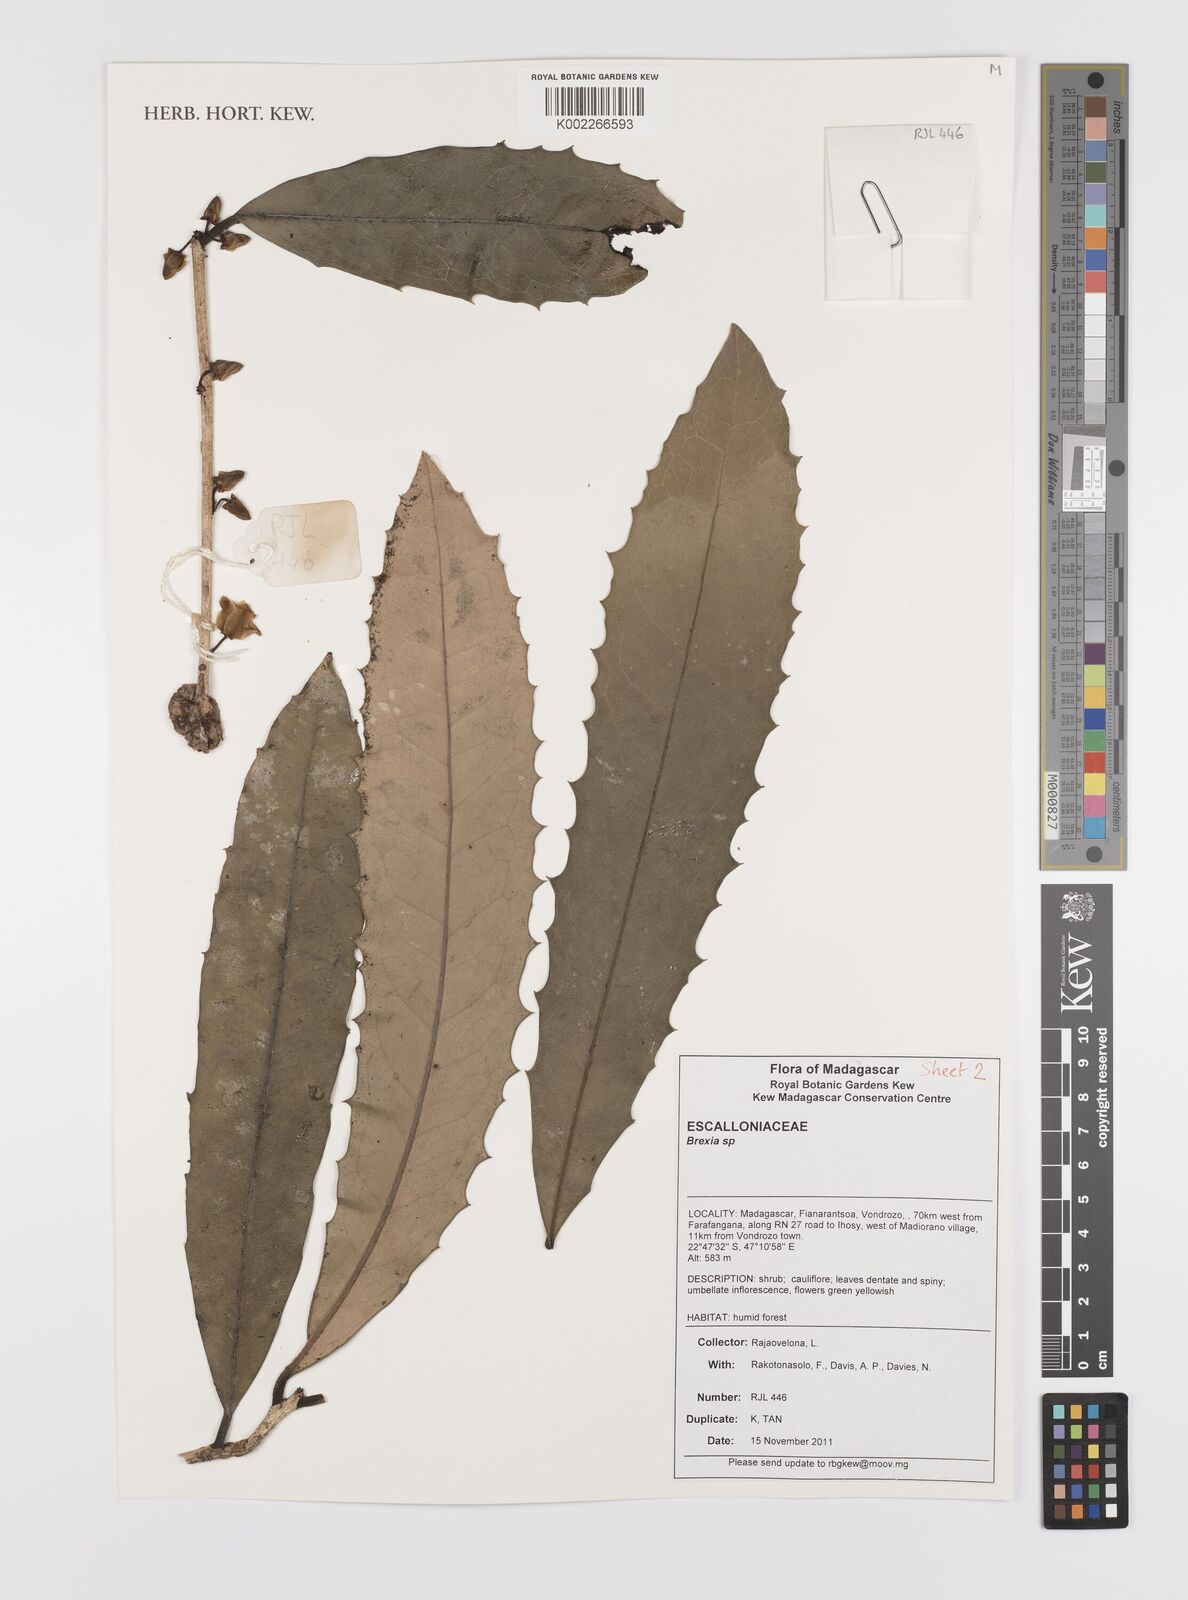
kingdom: Plantae
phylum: Tracheophyta
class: Magnoliopsida
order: Celastrales
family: Celastraceae
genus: Brexia
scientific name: Brexia
